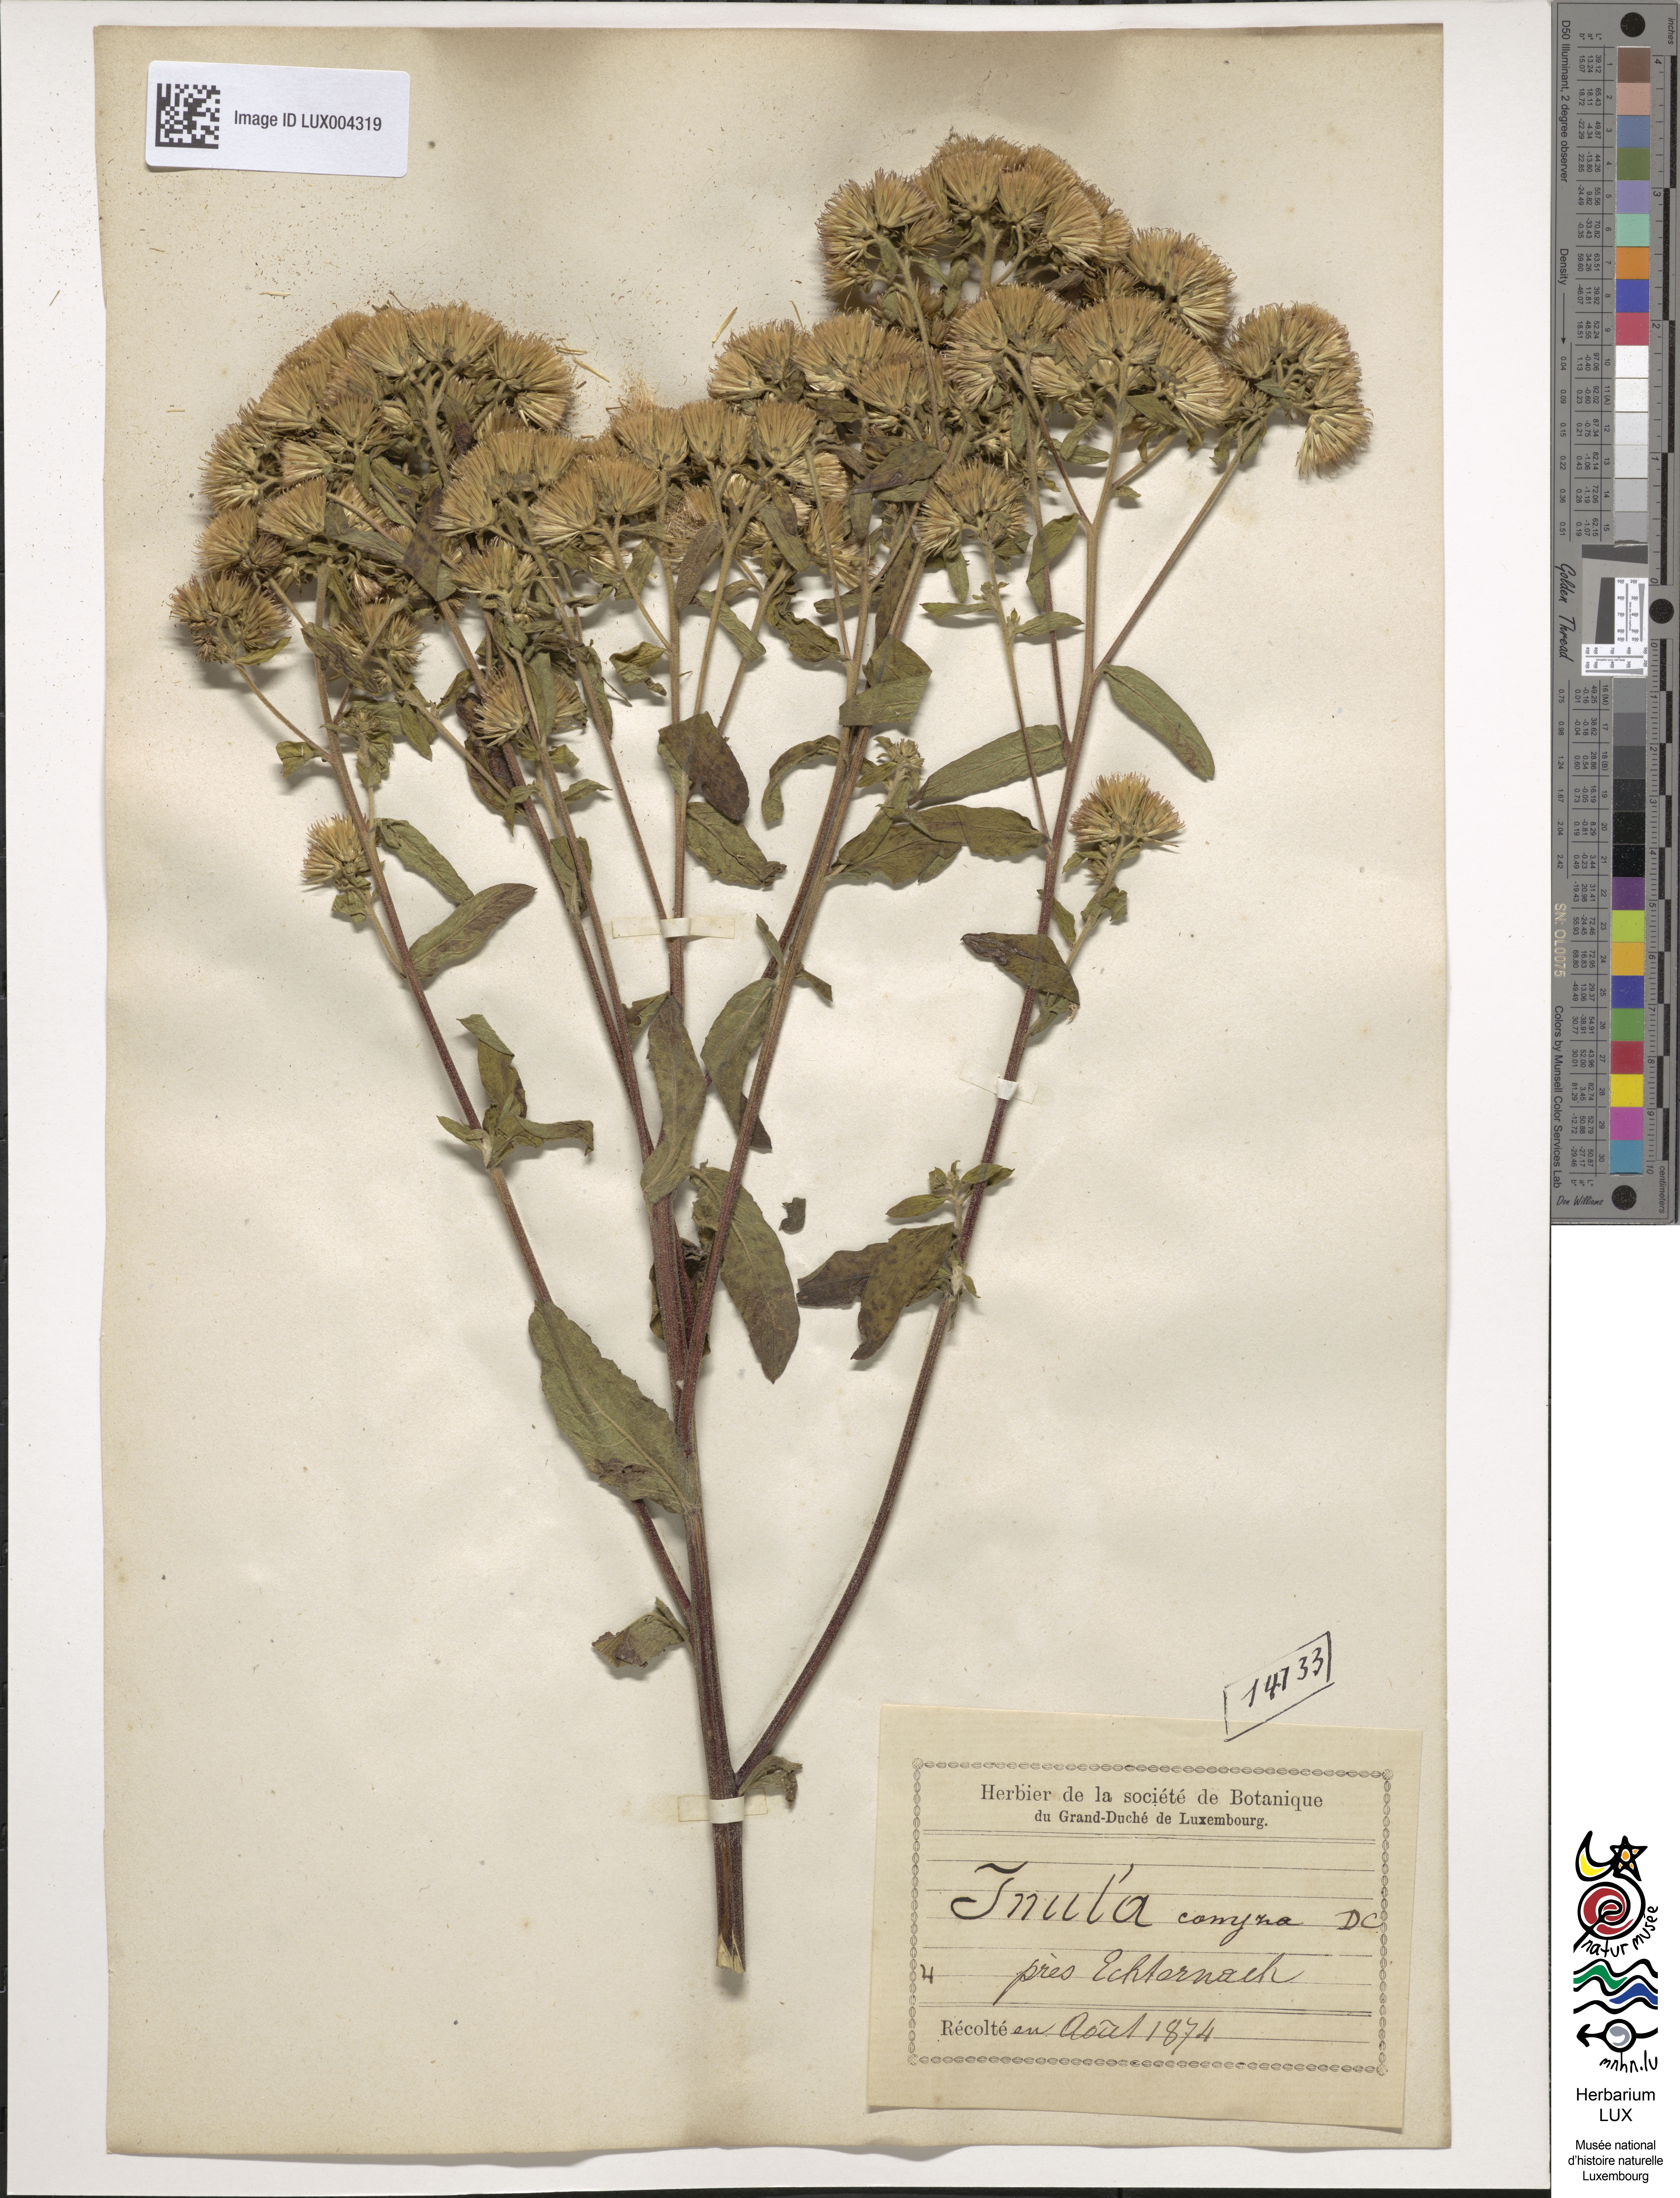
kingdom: Plantae
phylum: Tracheophyta
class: Magnoliopsida
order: Asterales
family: Asteraceae
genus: Pentanema
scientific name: Pentanema squarrosum
